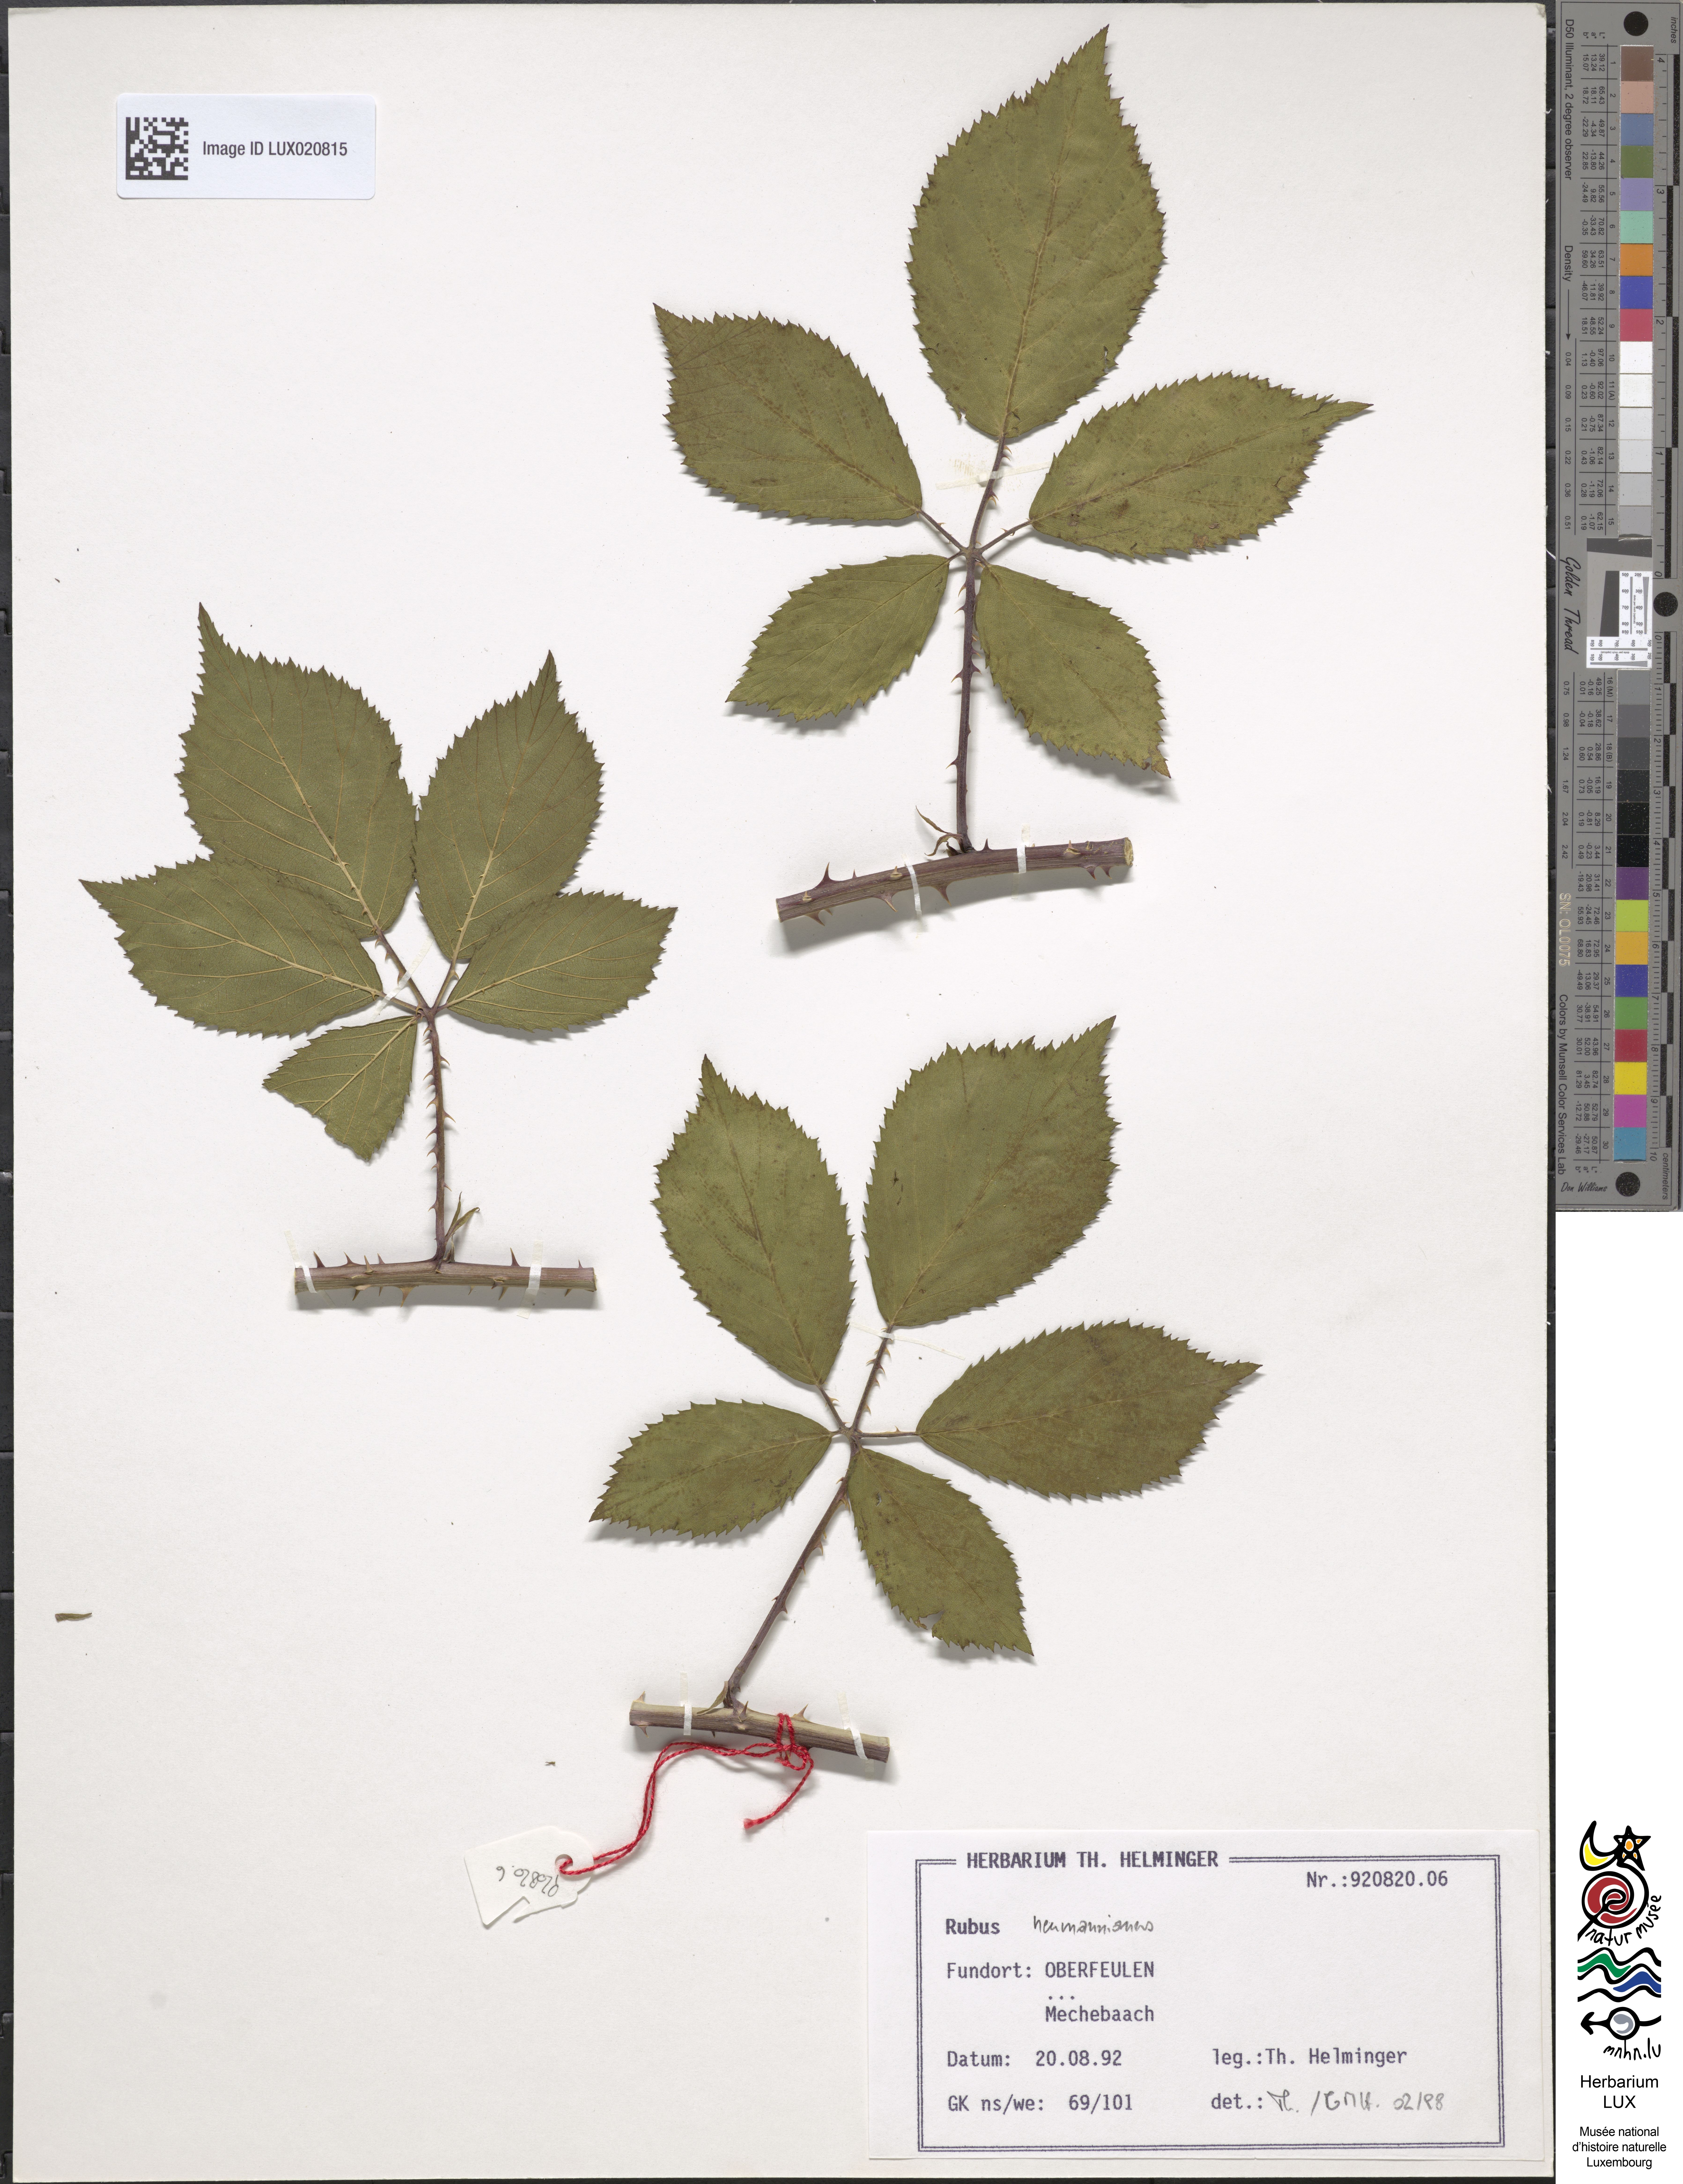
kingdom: Plantae
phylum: Tracheophyta
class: Magnoliopsida
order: Rosales
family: Rosaceae
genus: Rubus
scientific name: Rubus favonii
